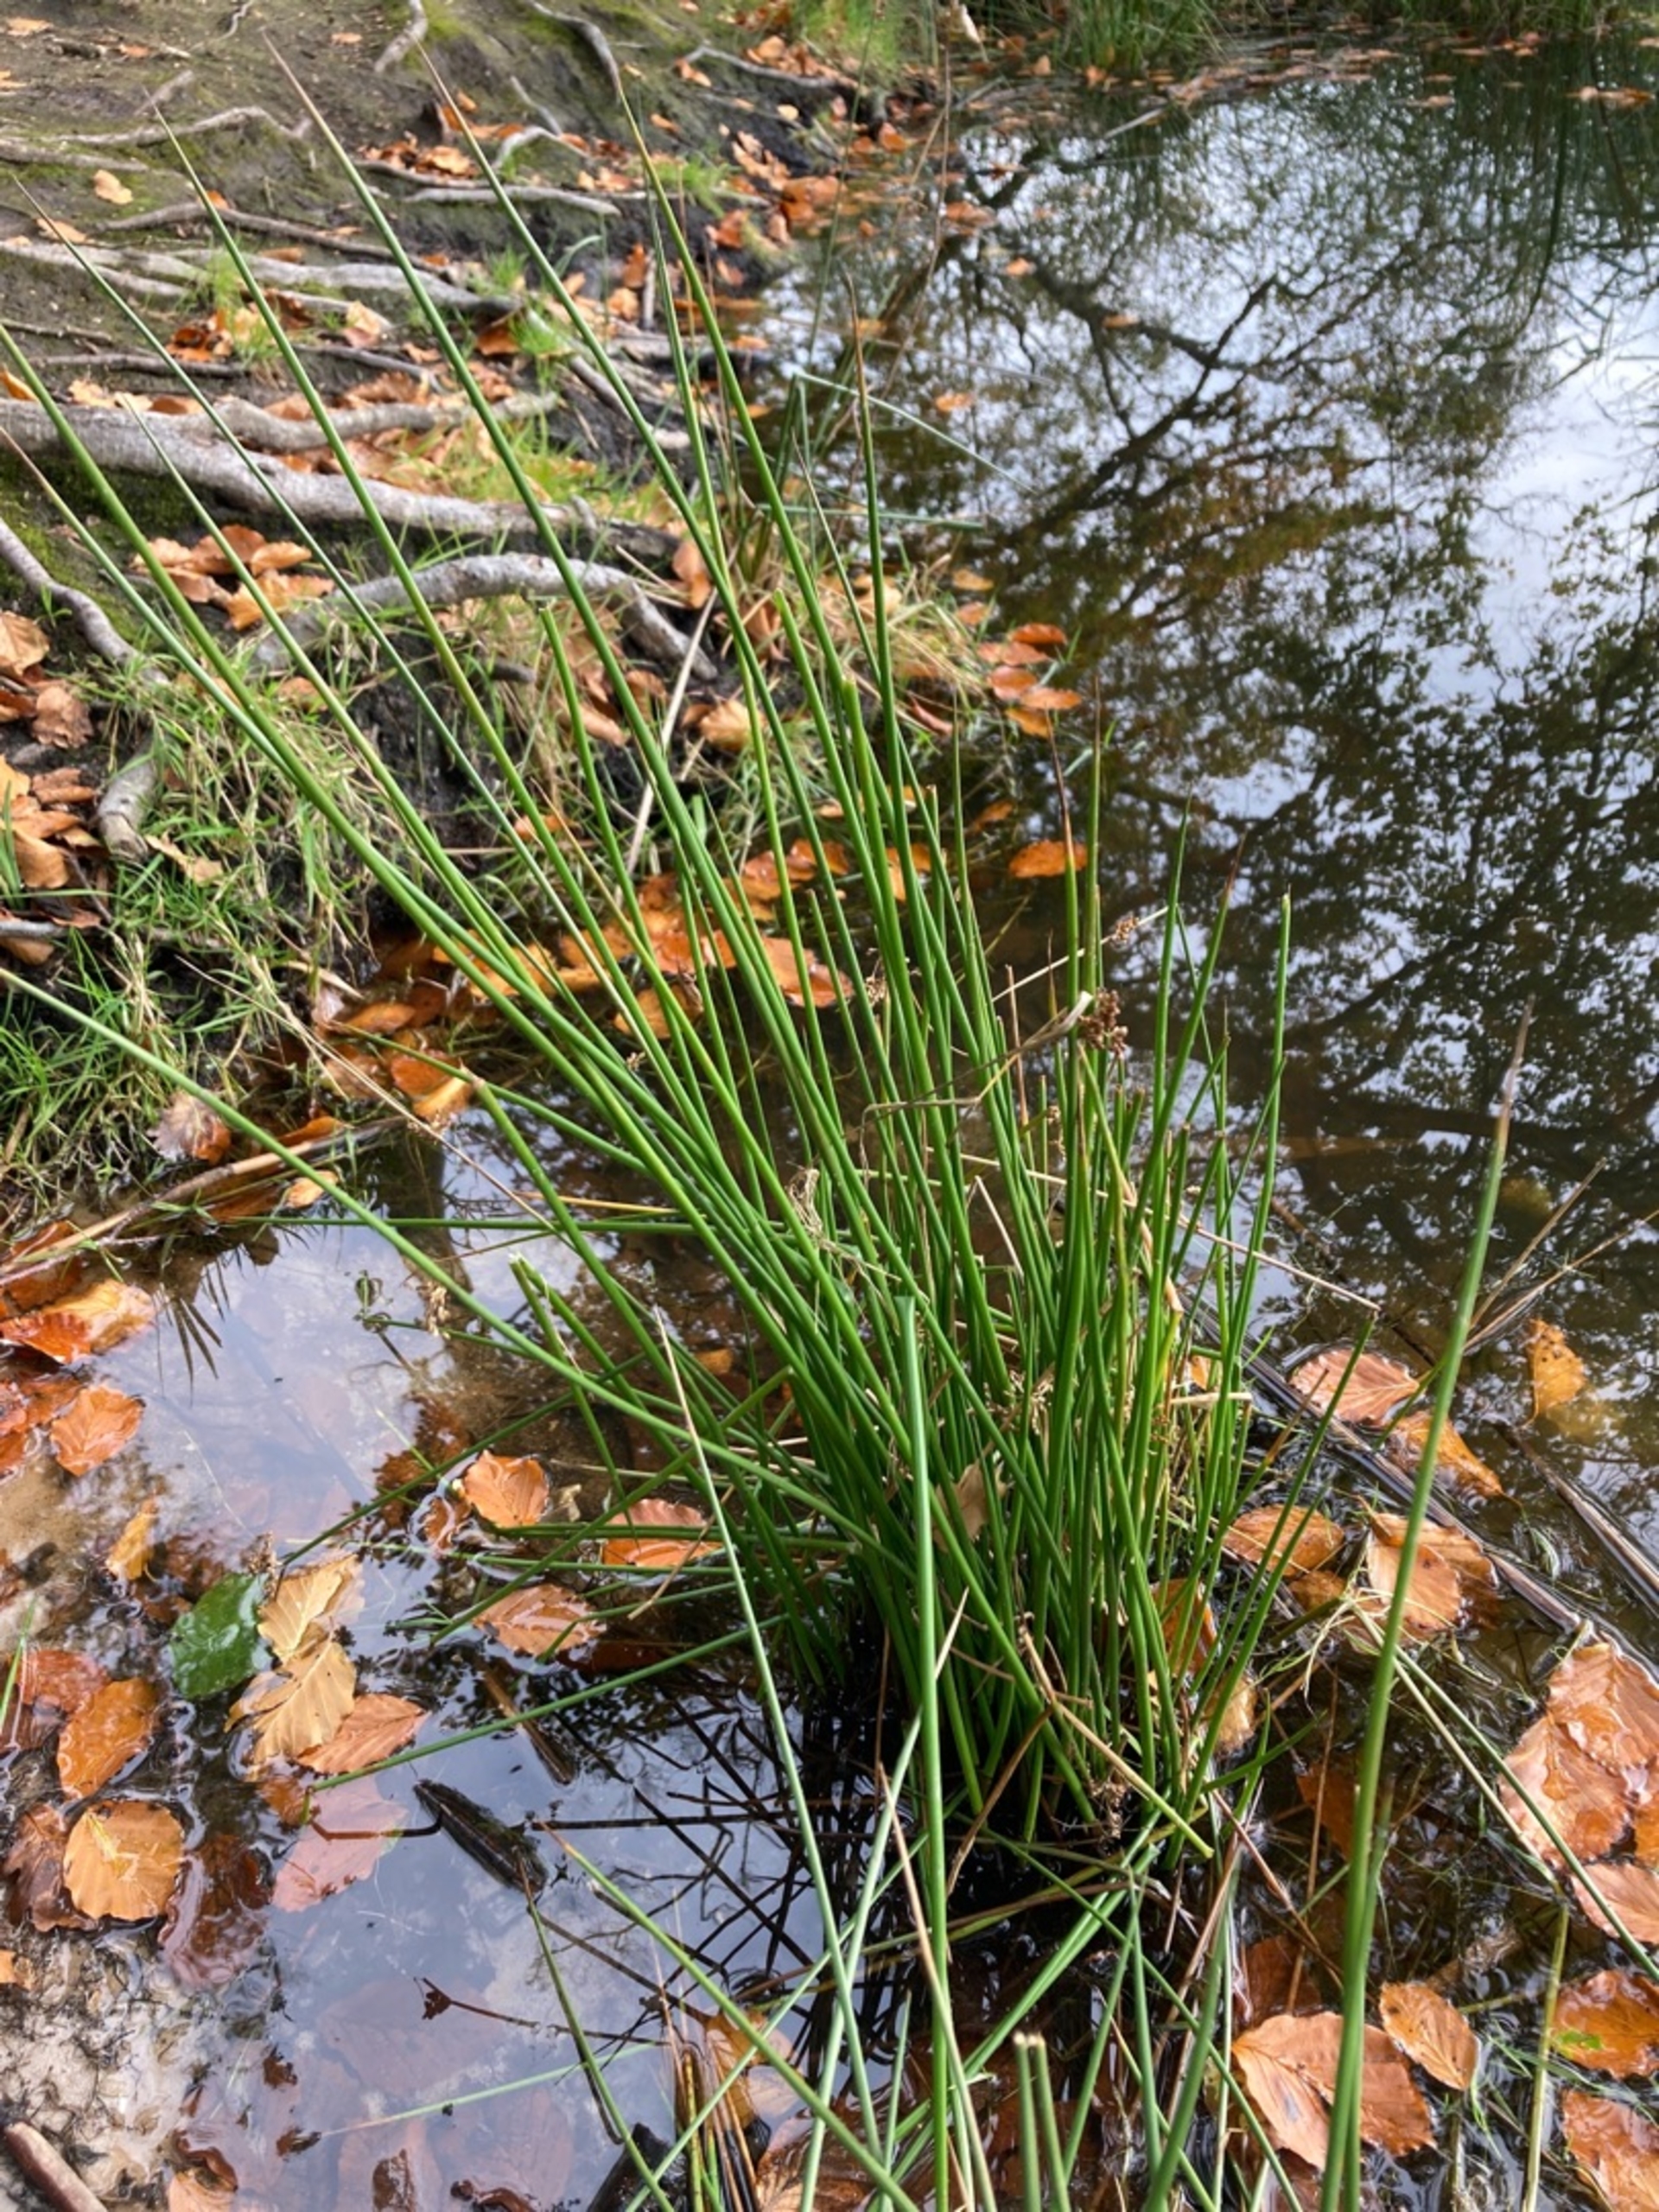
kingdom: Plantae
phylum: Tracheophyta
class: Liliopsida
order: Poales
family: Juncaceae
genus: Juncus
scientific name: Juncus effusus
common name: Lyse-siv
